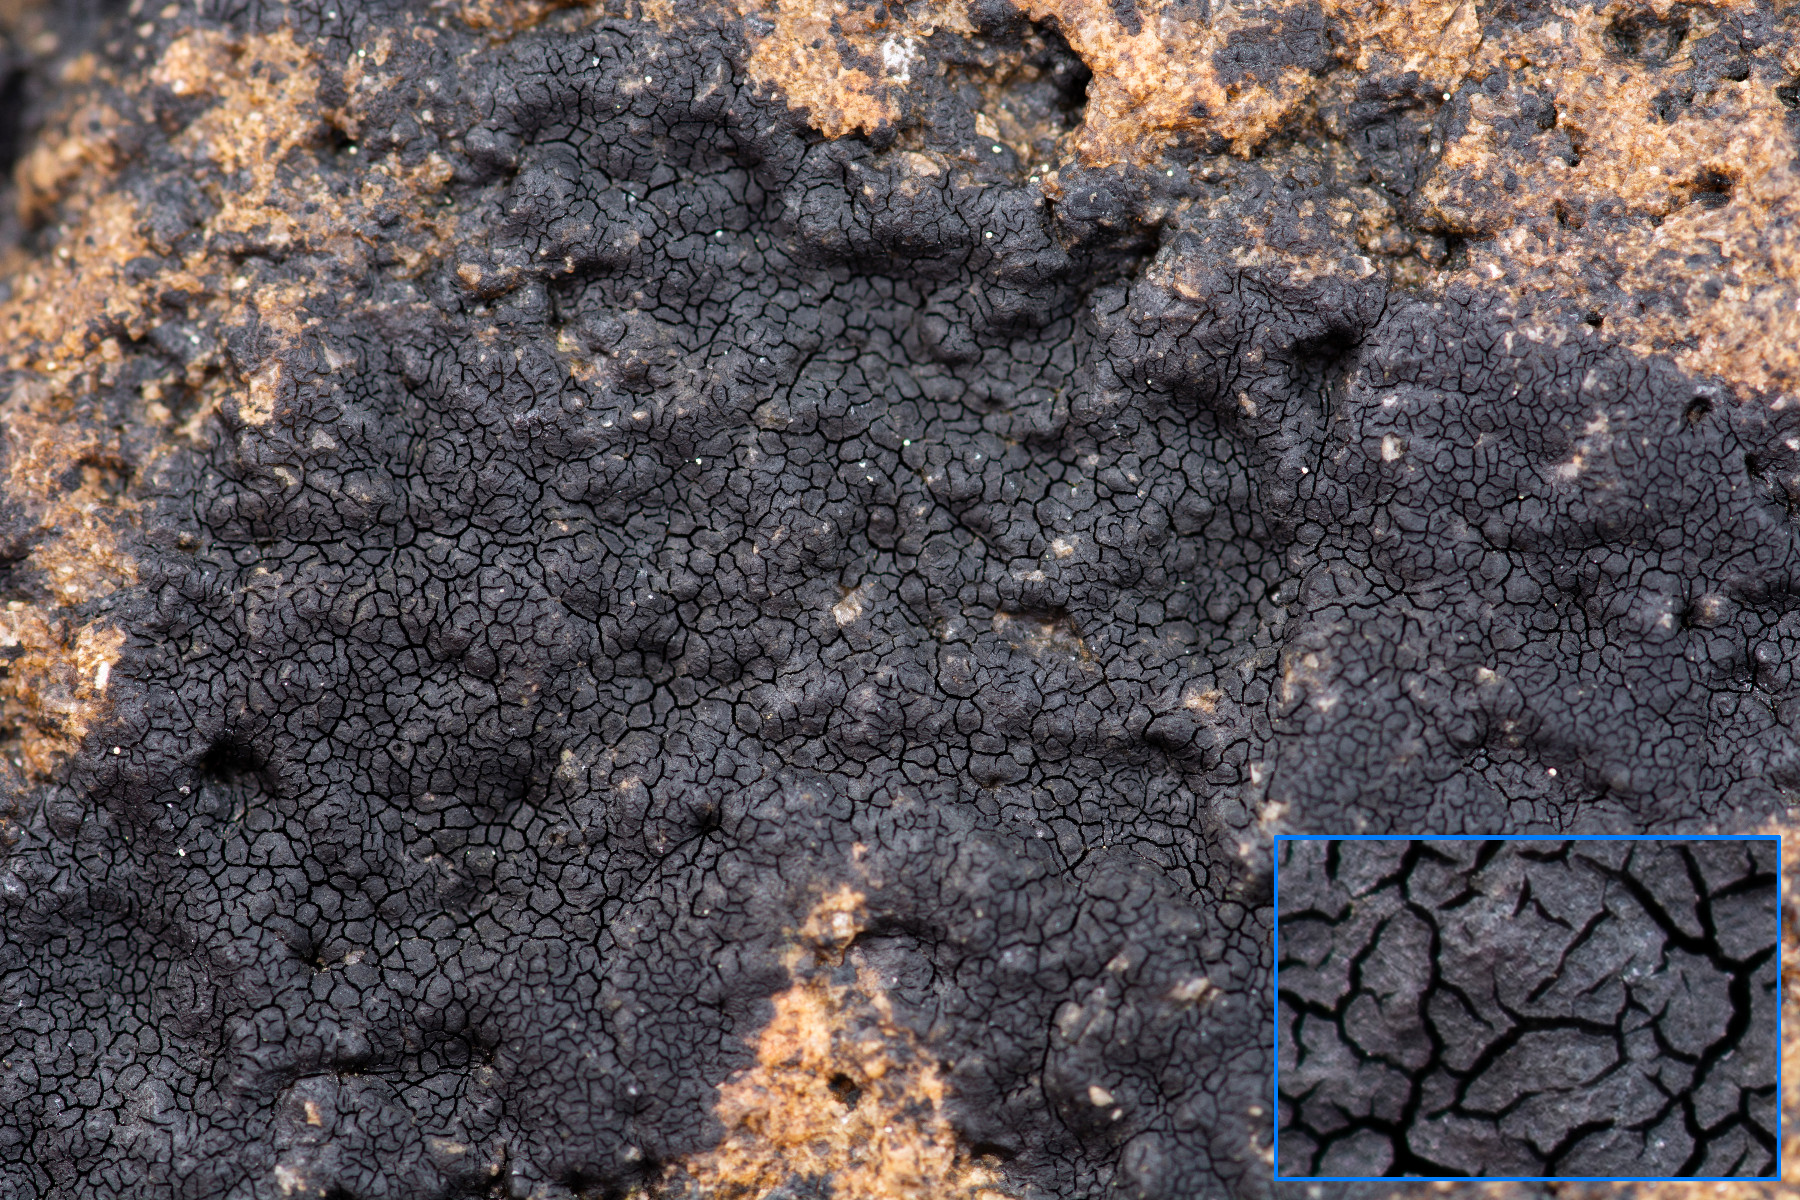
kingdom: Fungi
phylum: Ascomycota
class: Eurotiomycetes
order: Verrucariales
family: Verrucariaceae
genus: Hydropunctaria
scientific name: Hydropunctaria maura
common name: strand-vortelav
